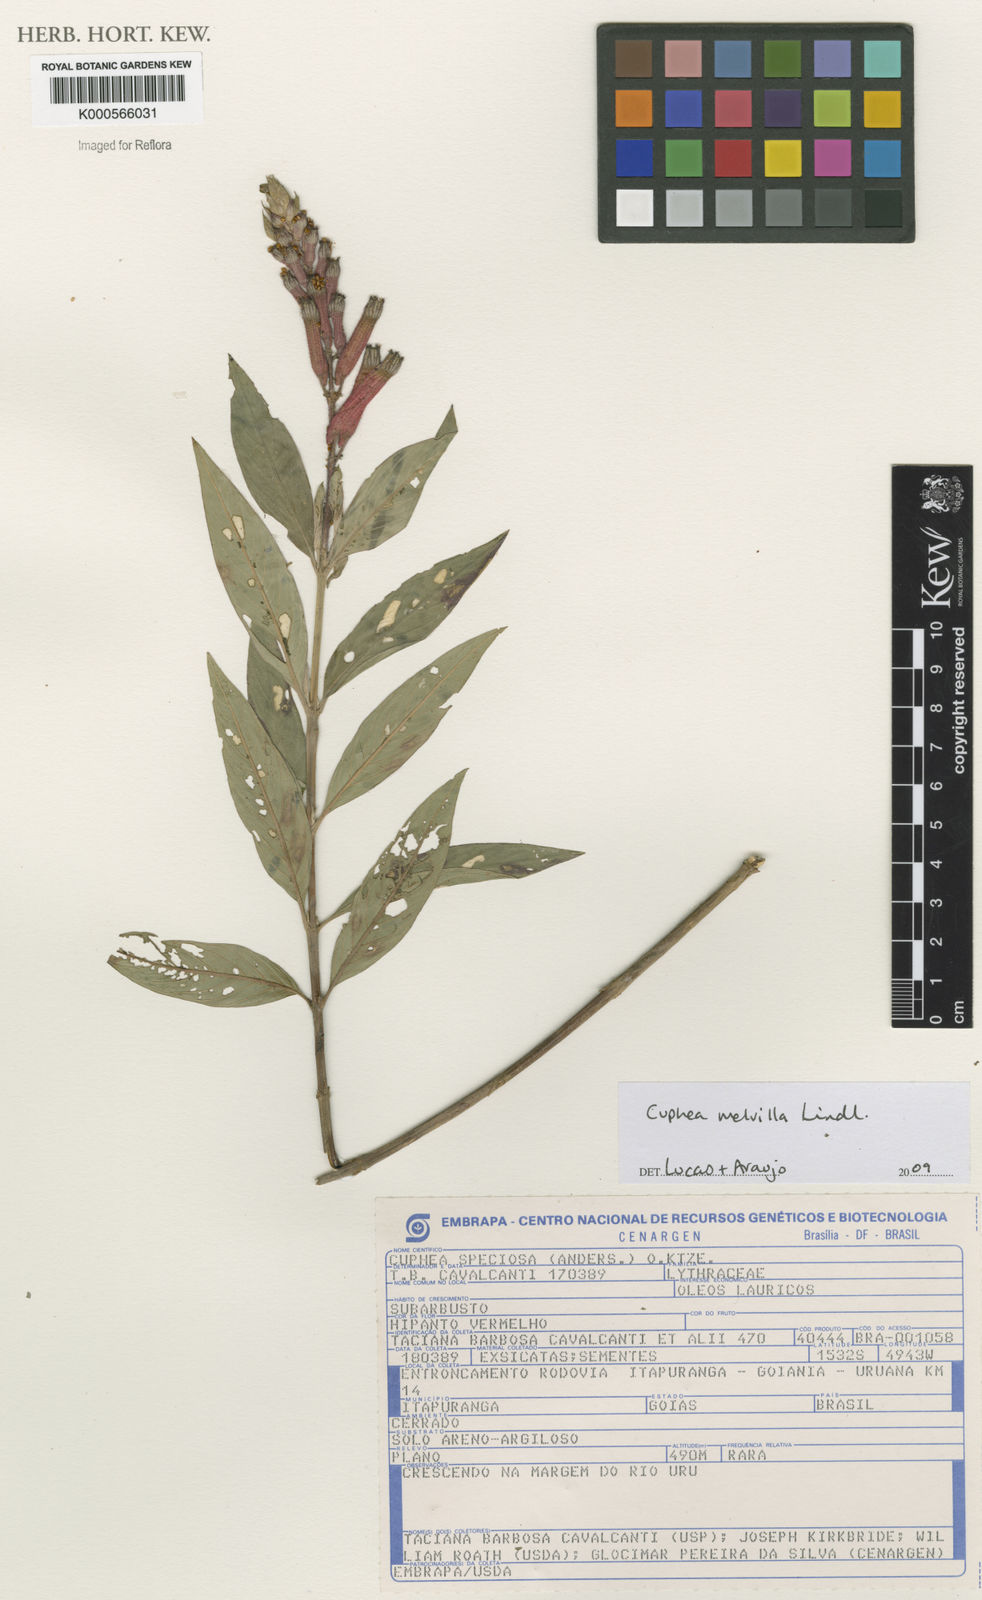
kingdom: Plantae
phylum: Tracheophyta
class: Magnoliopsida
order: Myrtales
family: Lythraceae
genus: Cuphea
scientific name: Cuphea
